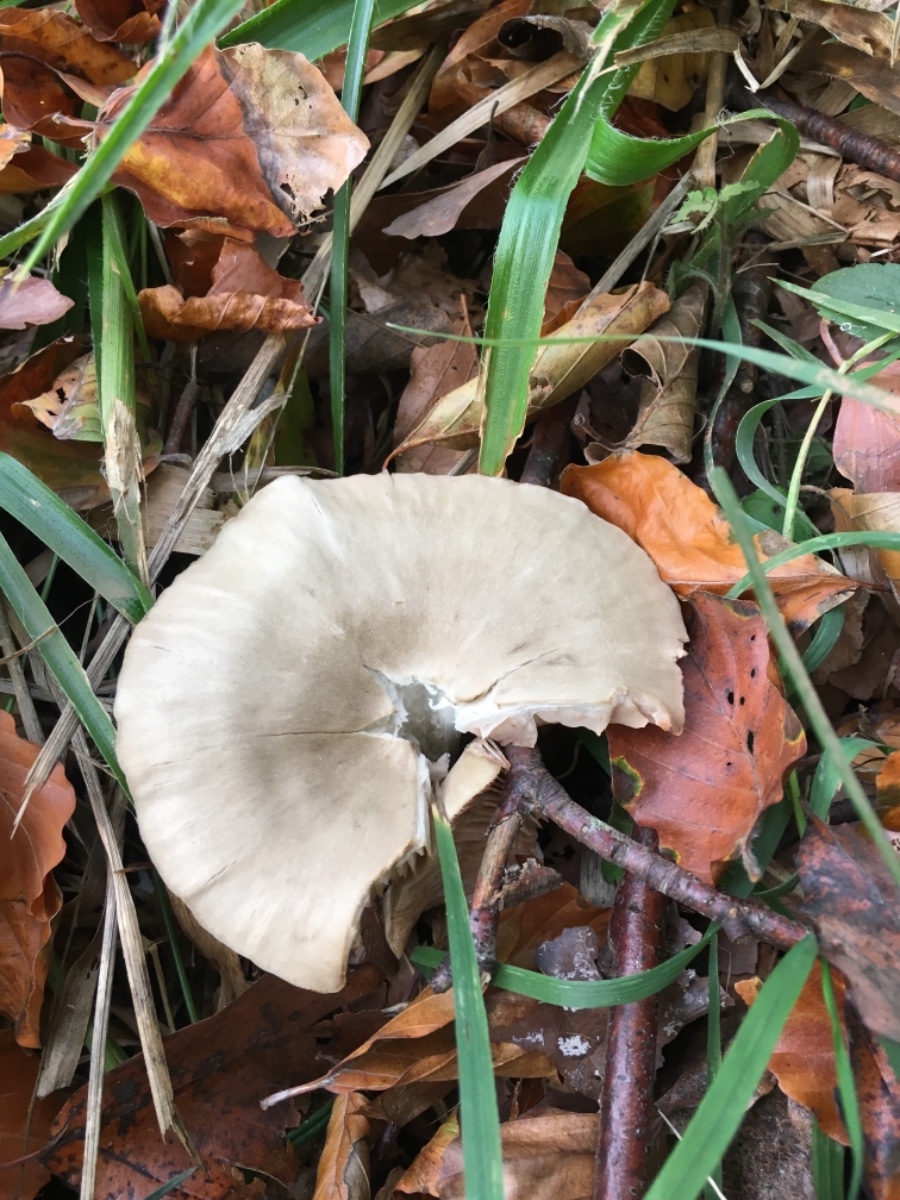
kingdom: Fungi
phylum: Basidiomycota
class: Agaricomycetes
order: Agaricales
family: Entolomataceae
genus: Entoloma
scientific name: Entoloma rhodopolium
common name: skov-rødblad
